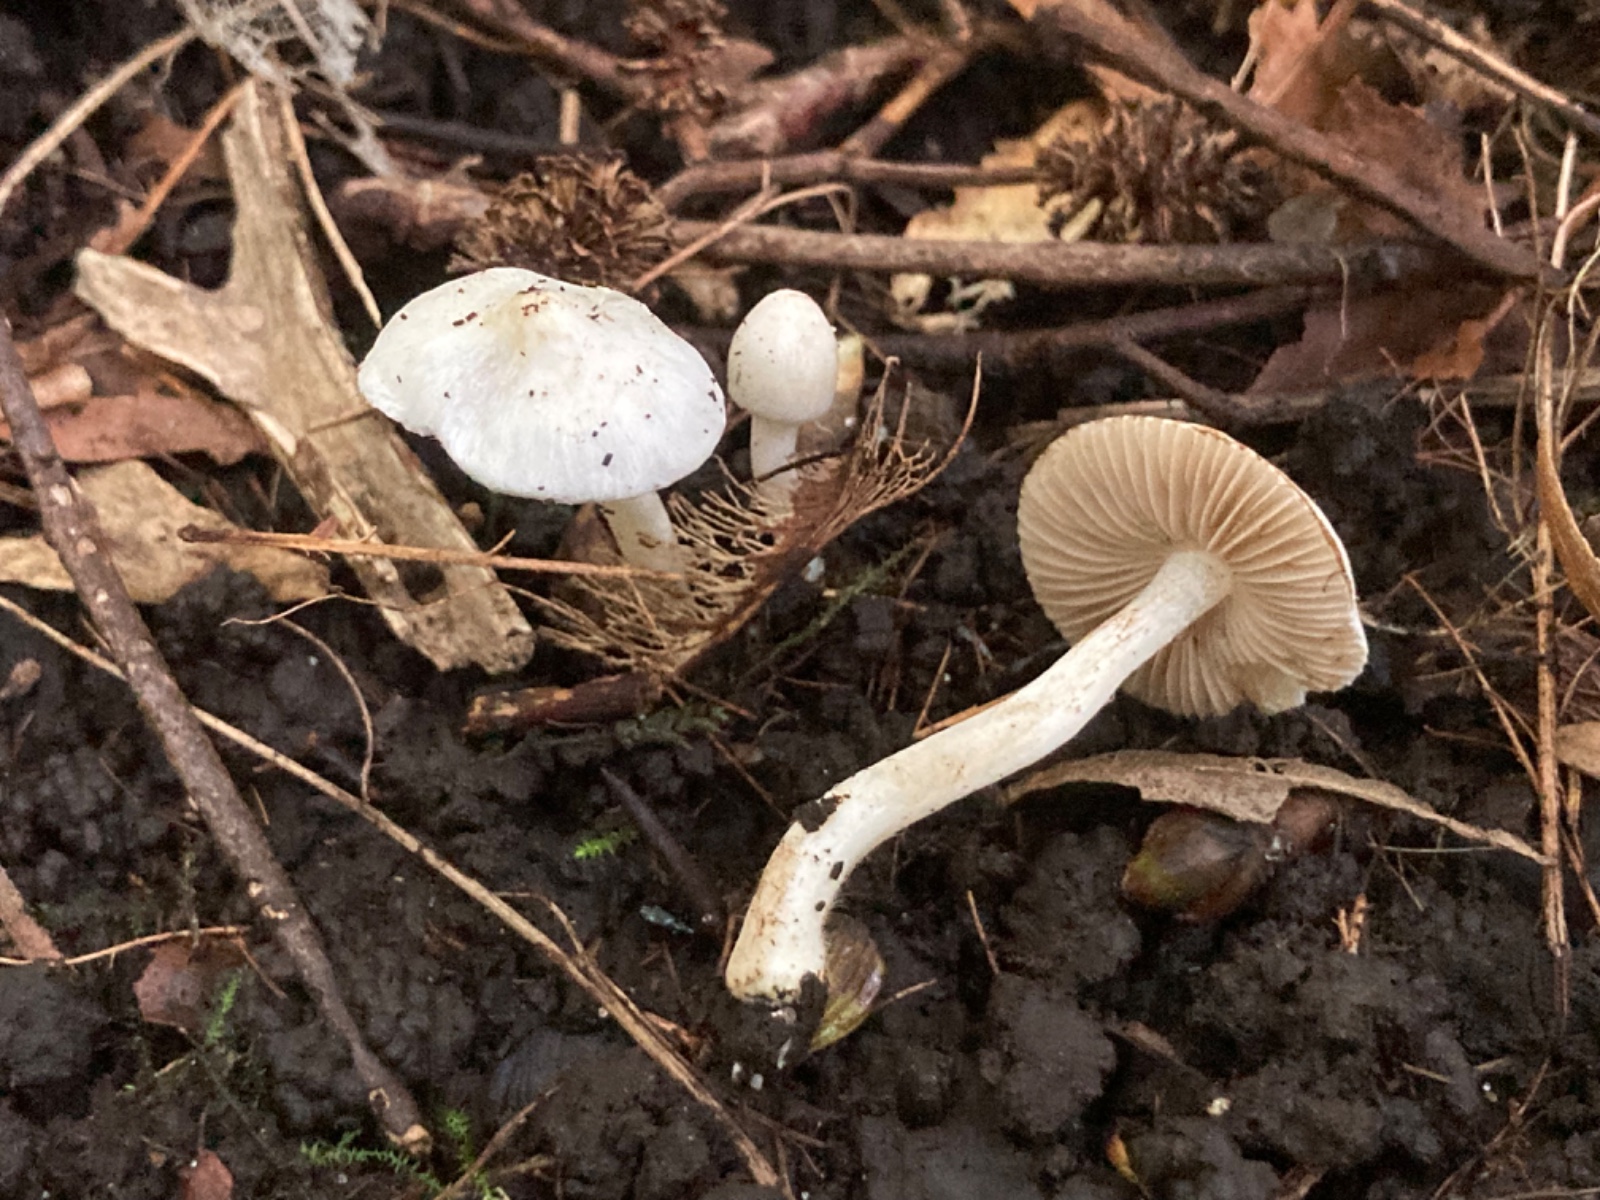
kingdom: Fungi
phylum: Basidiomycota
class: Agaricomycetes
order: Agaricales
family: Inocybaceae
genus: Inocybe
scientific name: Inocybe
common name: almindelig trævlhat
